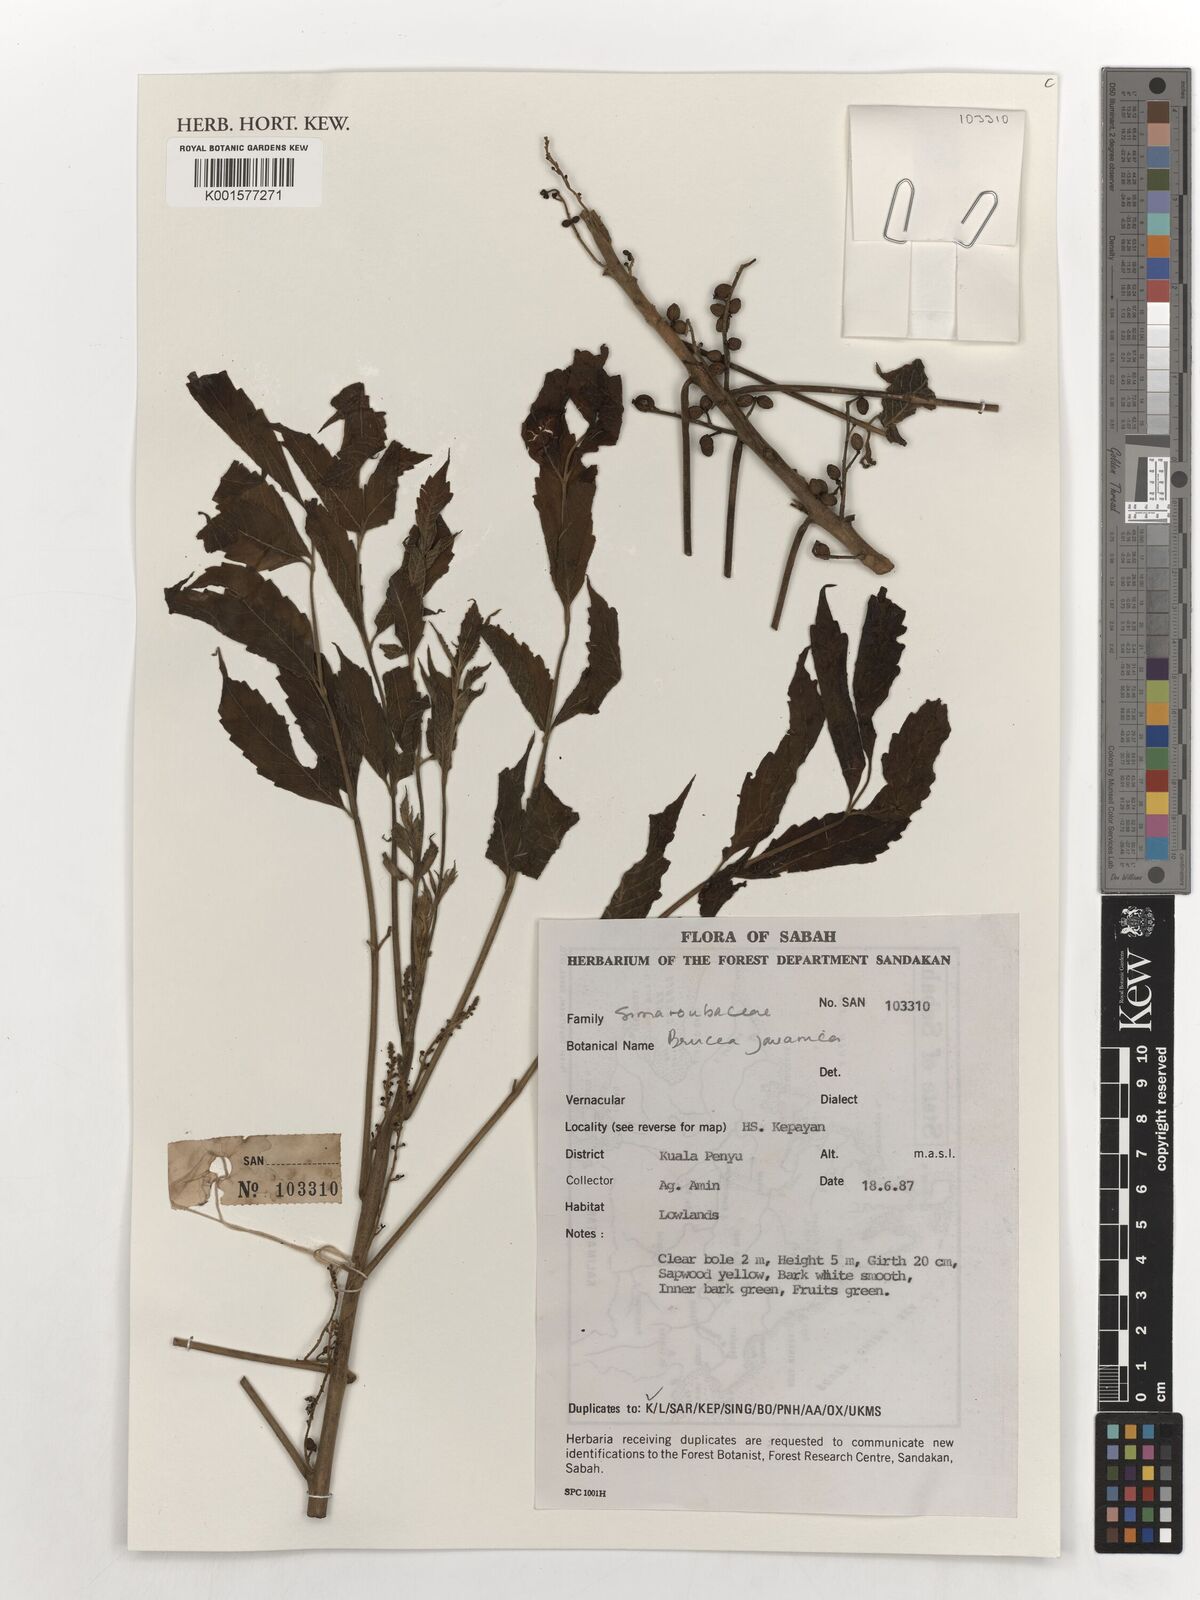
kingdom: Plantae
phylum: Tracheophyta
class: Magnoliopsida
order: Sapindales
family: Simaroubaceae
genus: Brucea
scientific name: Brucea javanica
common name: Macassar kernels
